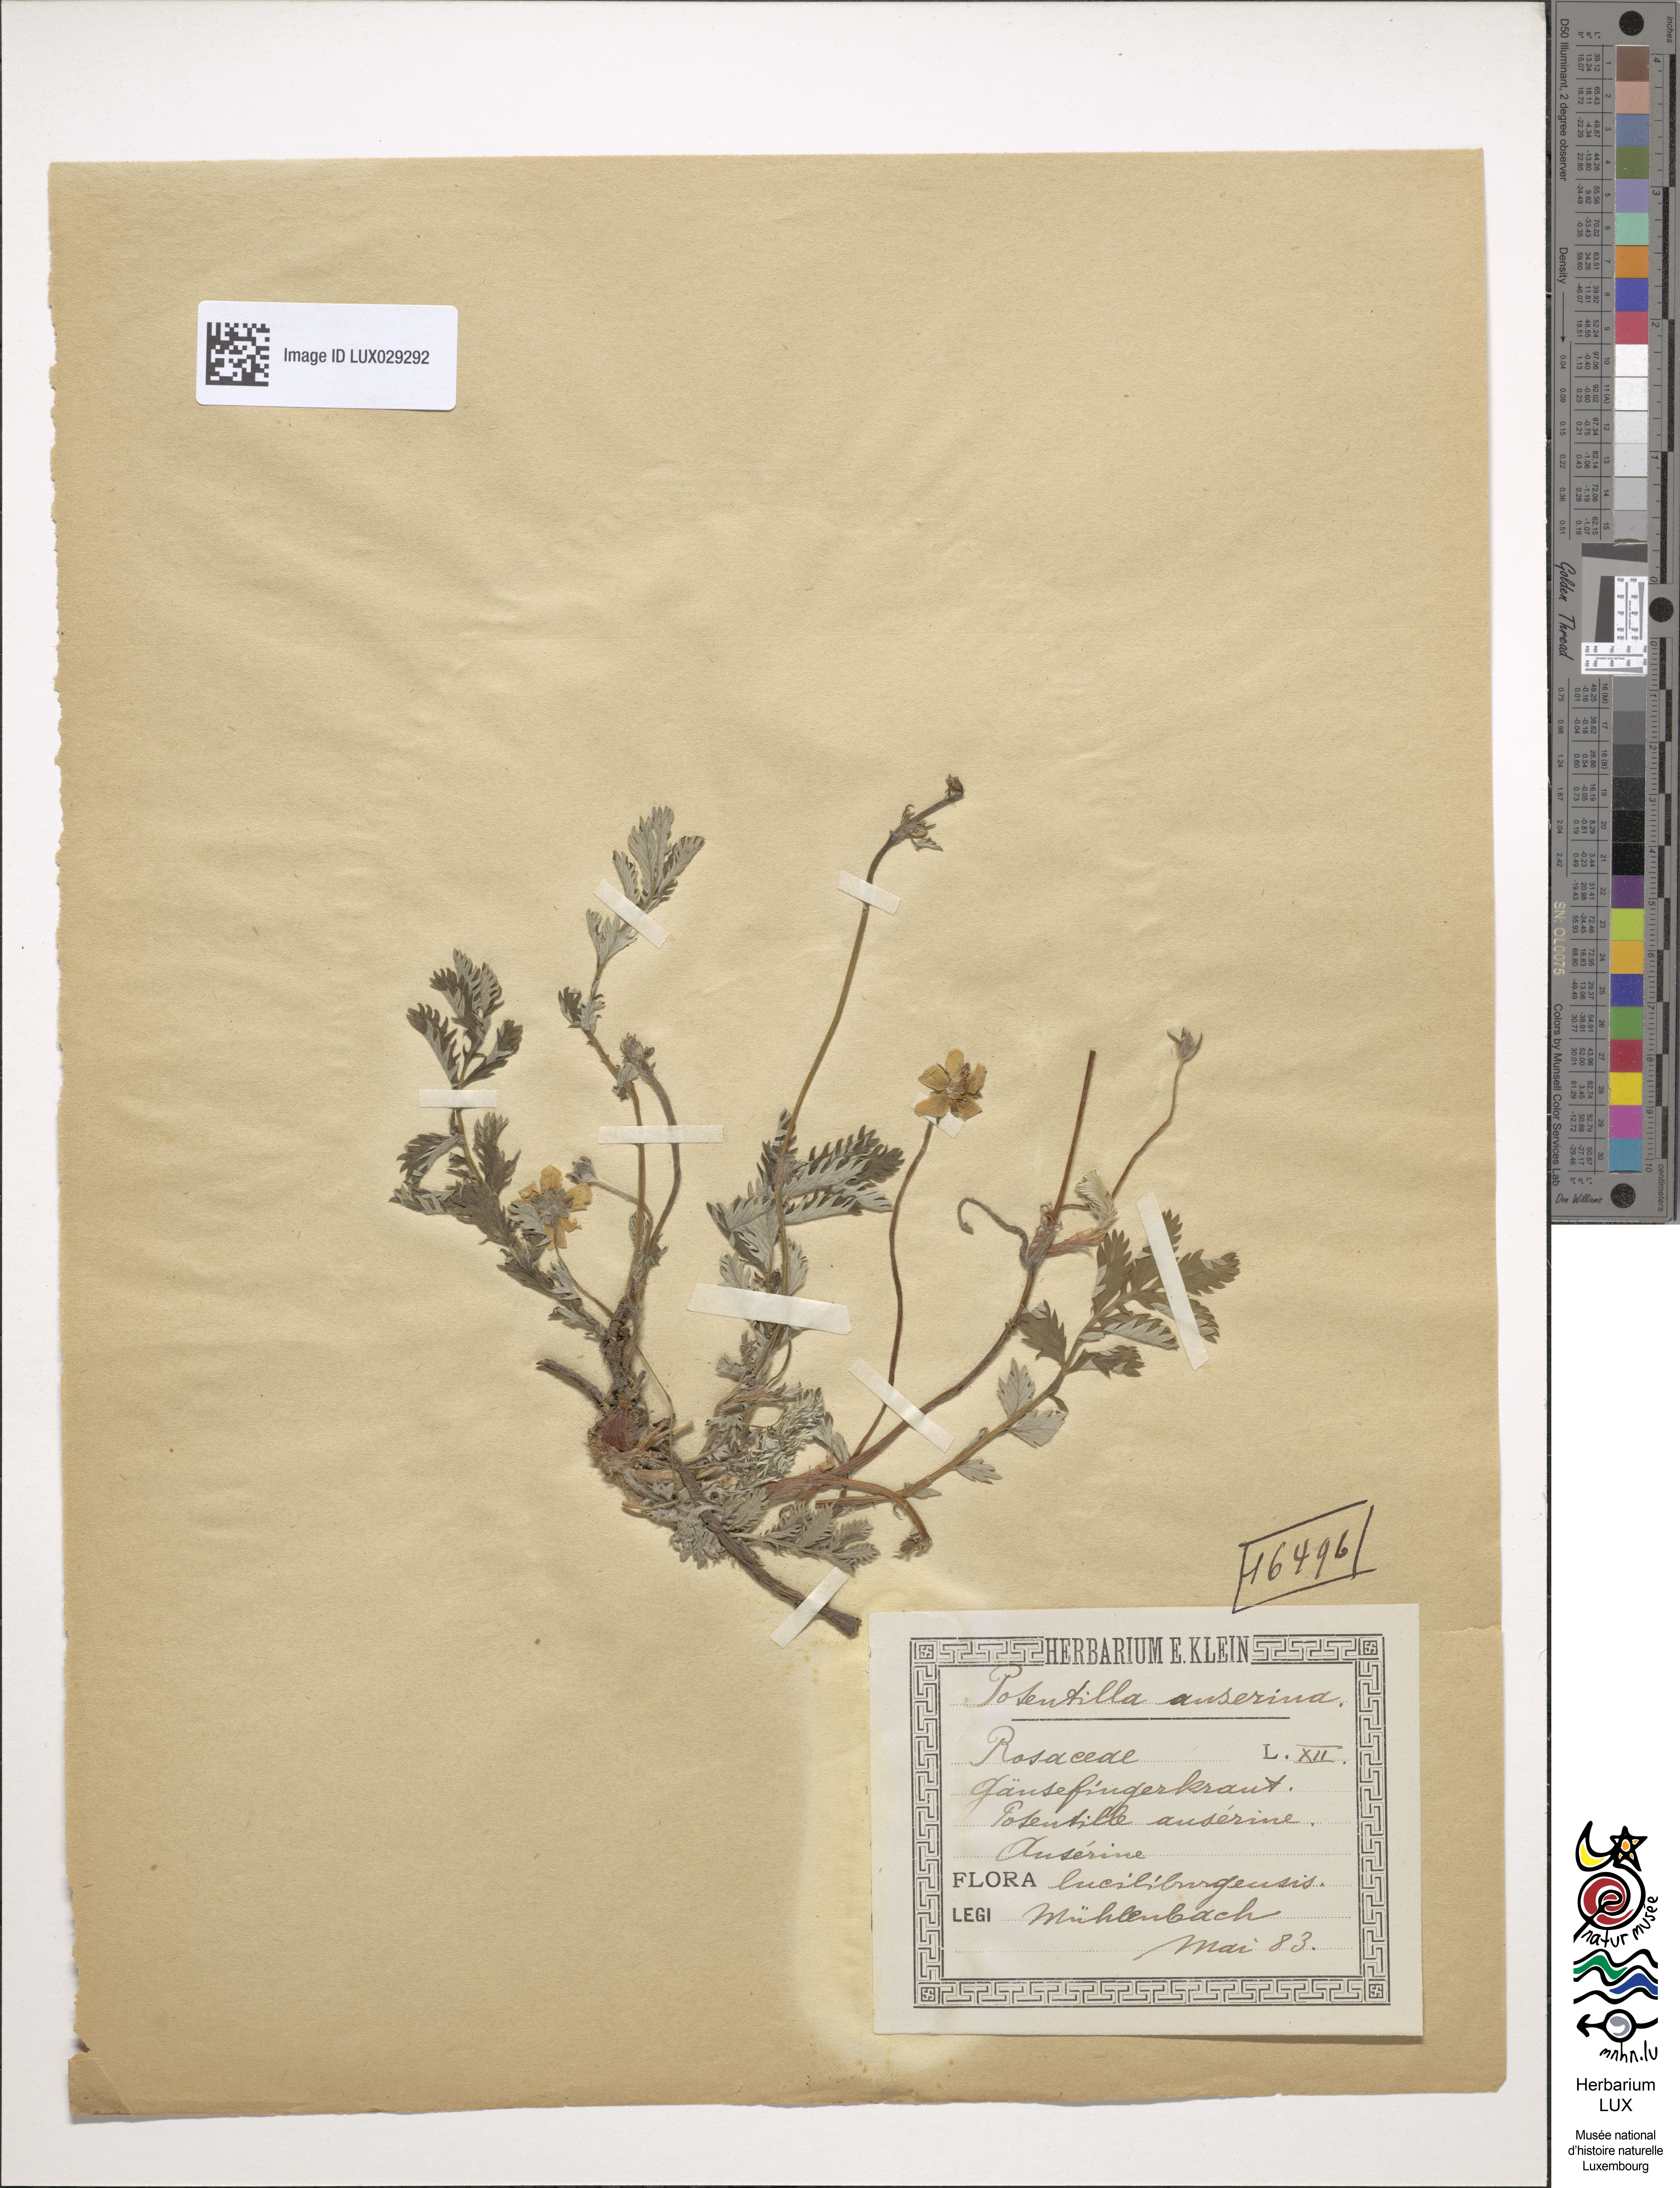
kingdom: Plantae
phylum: Tracheophyta
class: Magnoliopsida
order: Rosales
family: Rosaceae
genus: Argentina
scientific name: Argentina anserina
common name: Common silverweed
